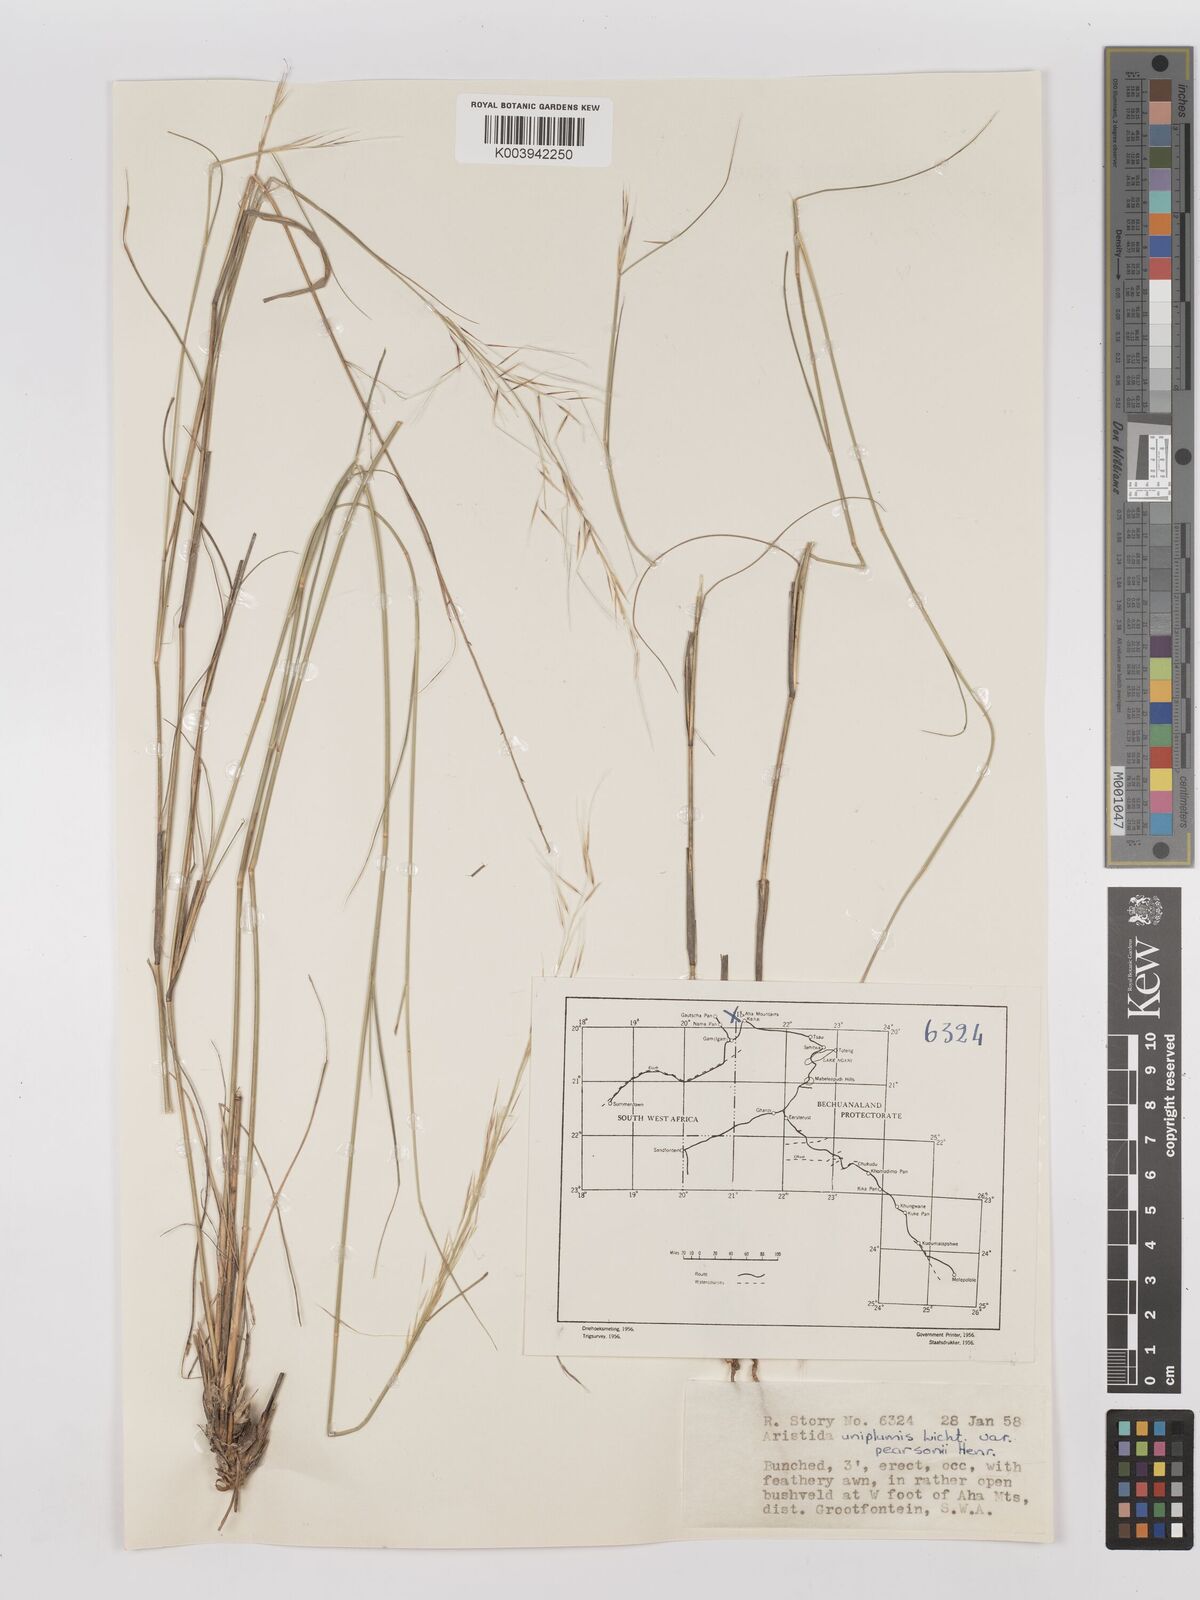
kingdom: Plantae
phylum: Tracheophyta
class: Liliopsida
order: Poales
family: Poaceae
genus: Stipagrostis
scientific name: Stipagrostis uniplumis
